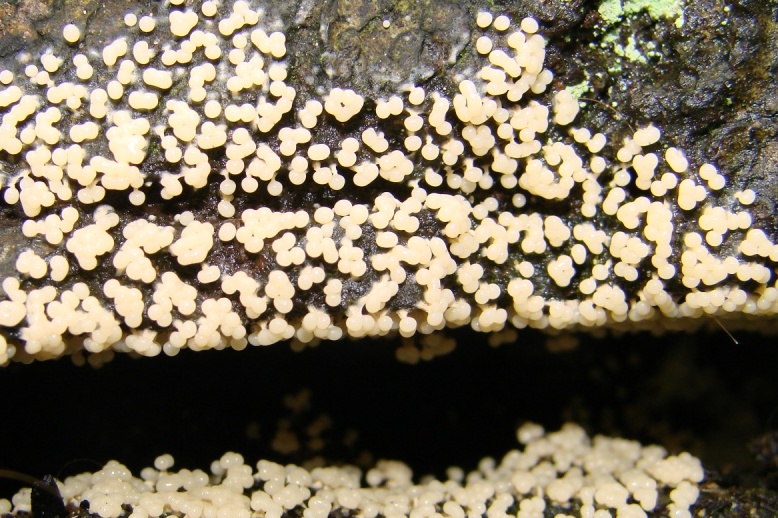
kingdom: Protozoa
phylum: Mycetozoa
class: Myxomycetes
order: Physarales
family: Physaraceae
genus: Physarum
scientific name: Physarum leucophaeum
